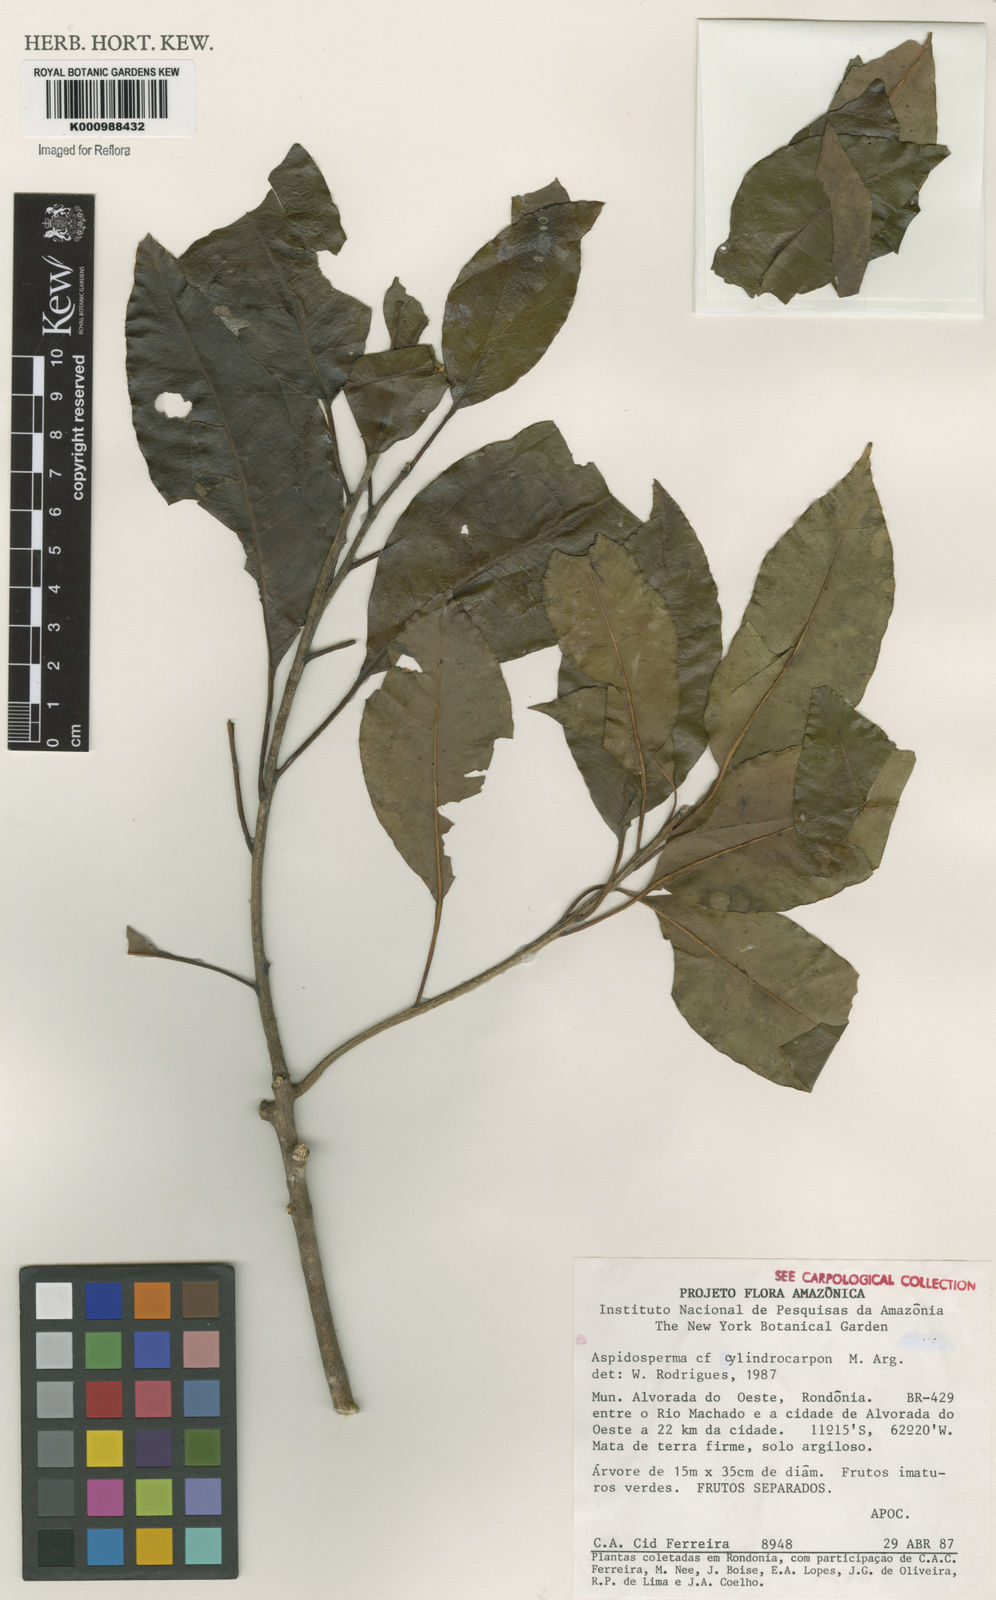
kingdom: Plantae
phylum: Tracheophyta
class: Magnoliopsida
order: Gentianales
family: Apocynaceae
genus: Aspidosperma
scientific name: Aspidosperma
